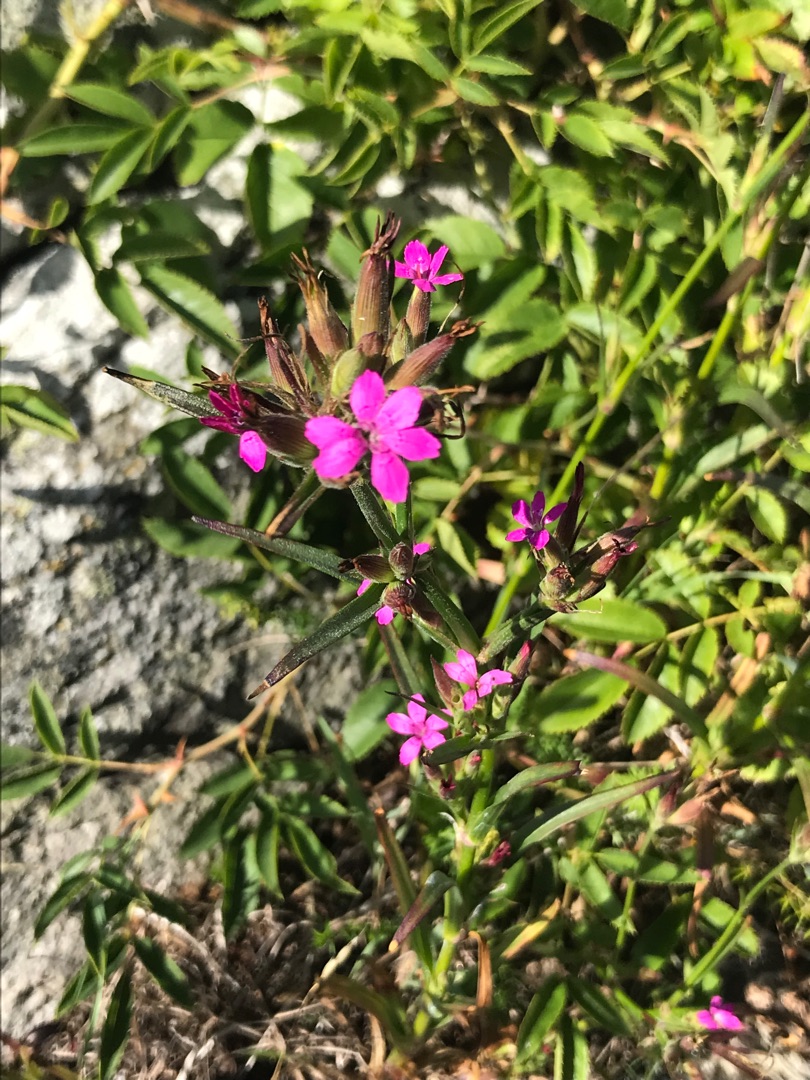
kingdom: Plantae
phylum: Tracheophyta
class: Magnoliopsida
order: Caryophyllales
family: Caryophyllaceae
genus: Dianthus
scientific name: Dianthus armeria
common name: Kost-nellike
